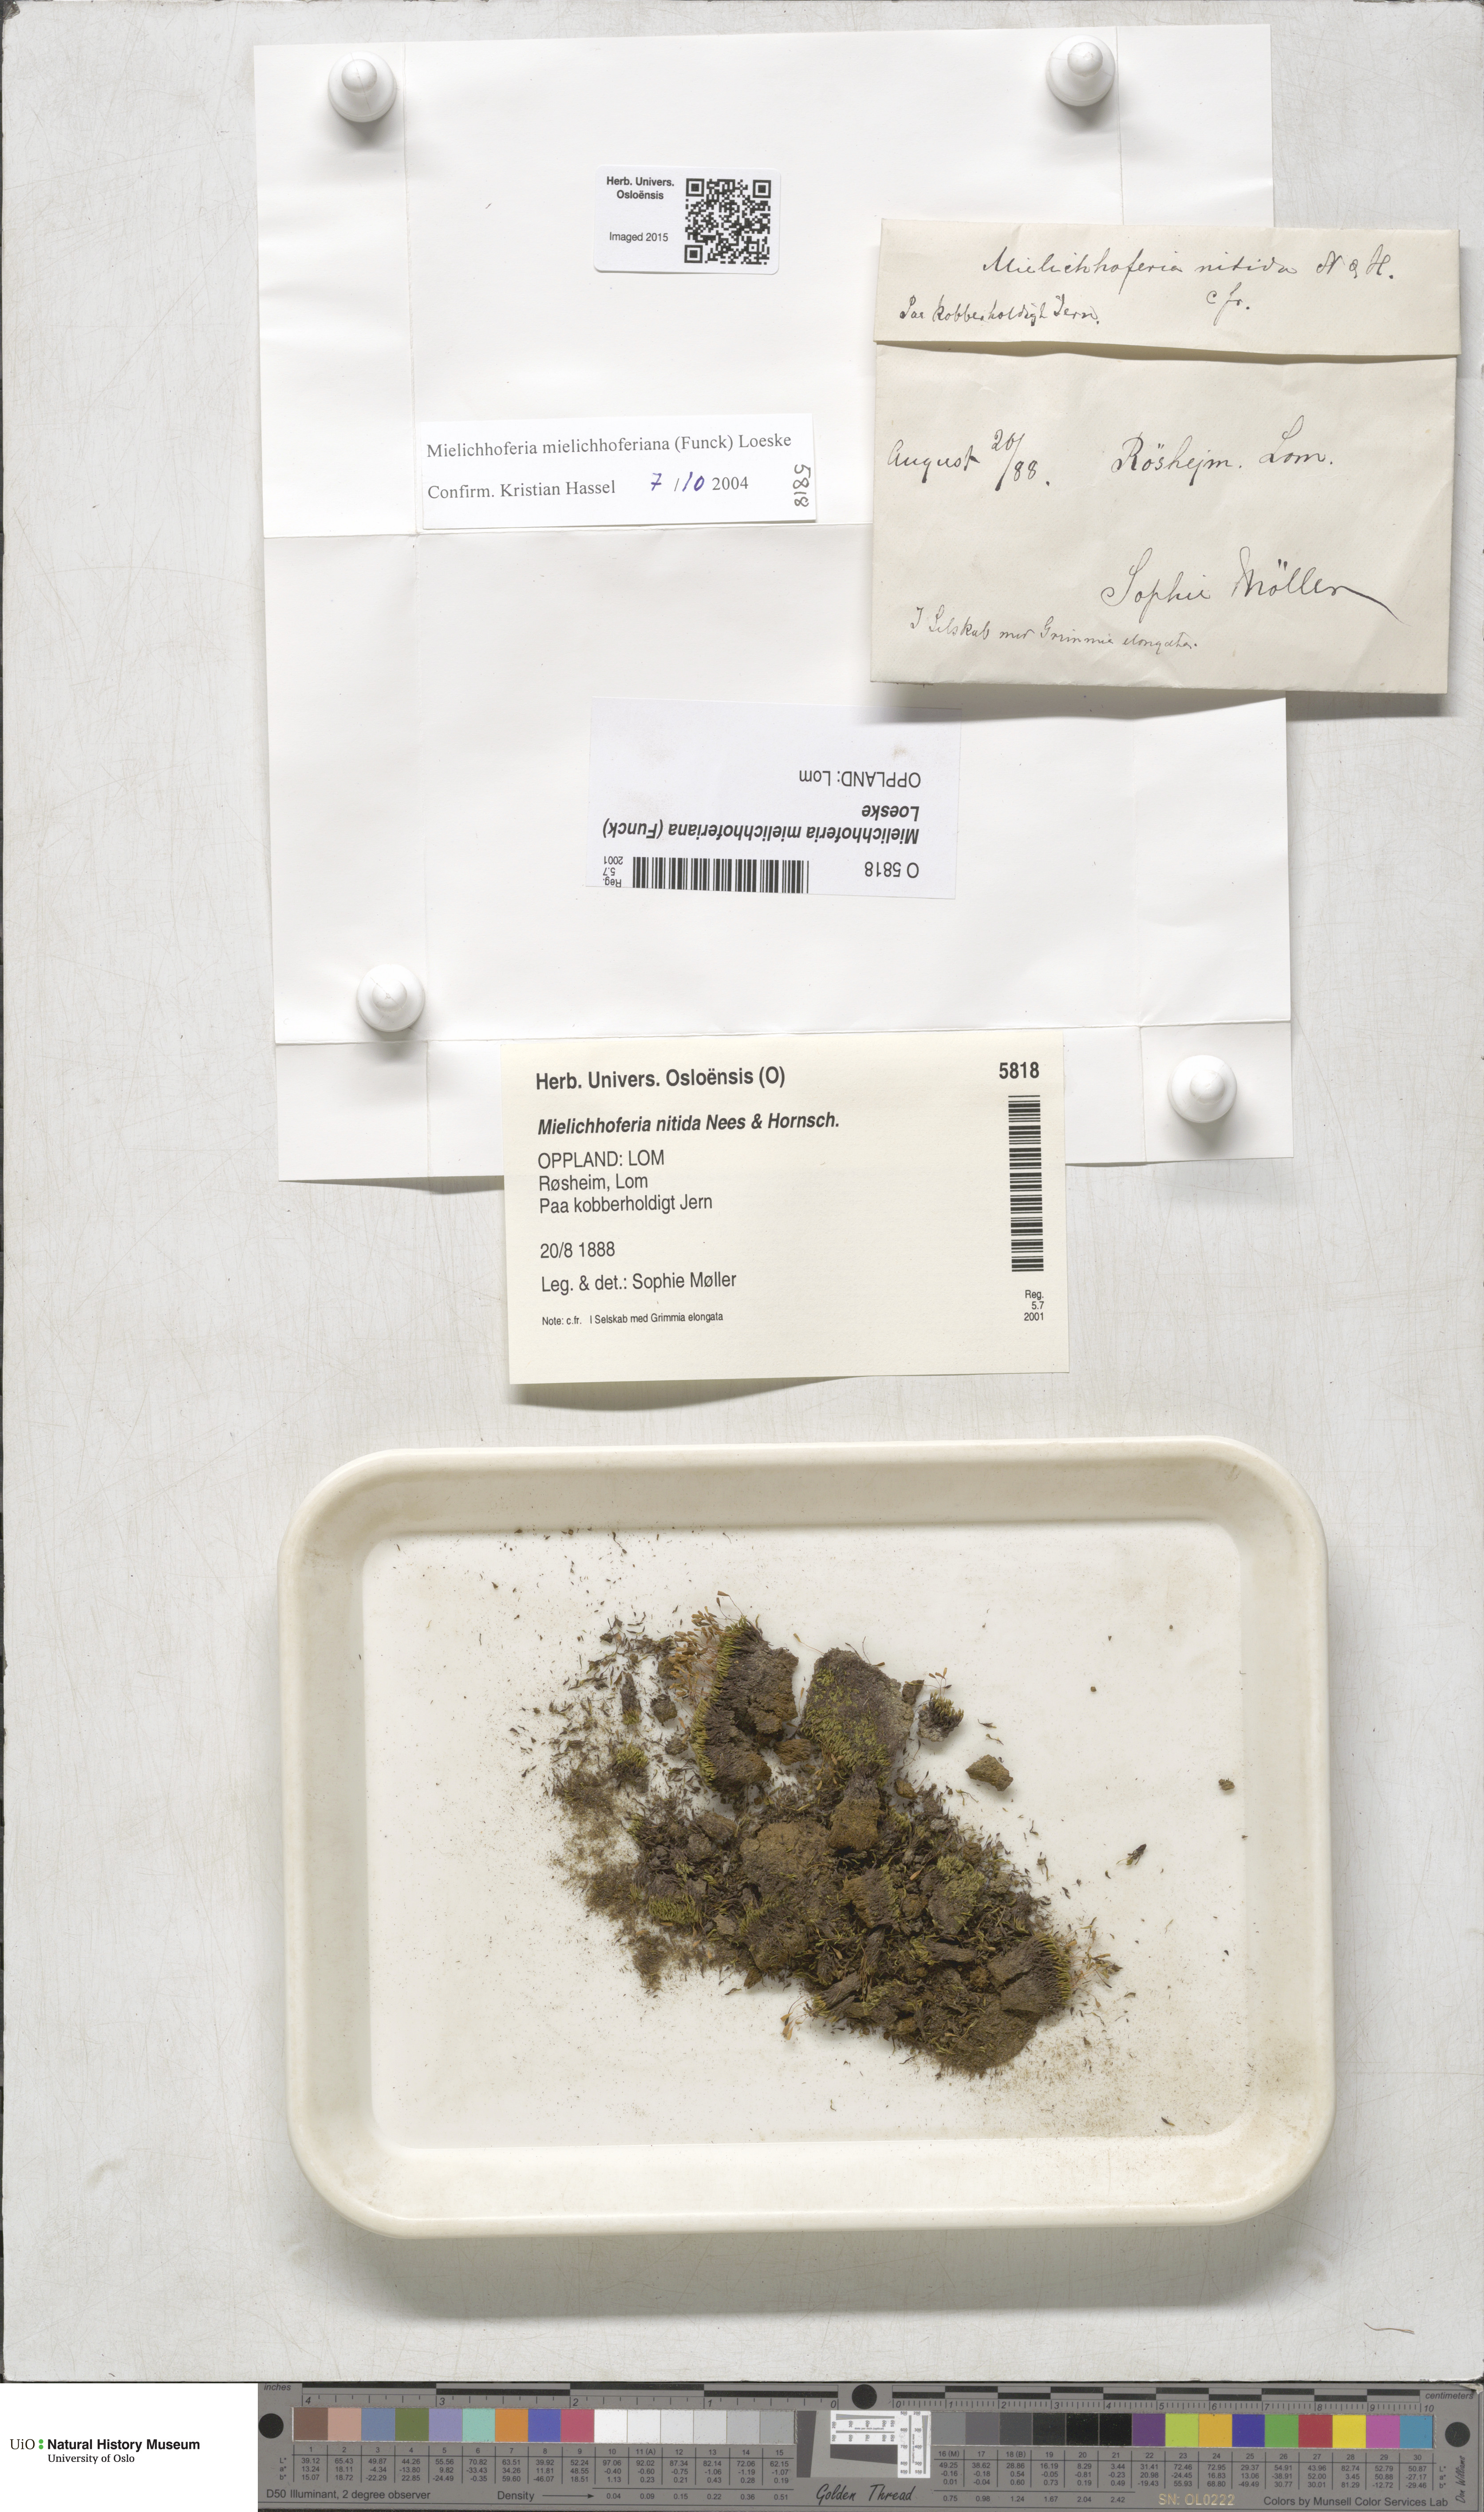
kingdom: Plantae
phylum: Bryophyta
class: Bryopsida
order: Bryales
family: Mniaceae
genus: Mielichhoferia
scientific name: Mielichhoferia mielichhoferiana
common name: Alpine copper-moss
